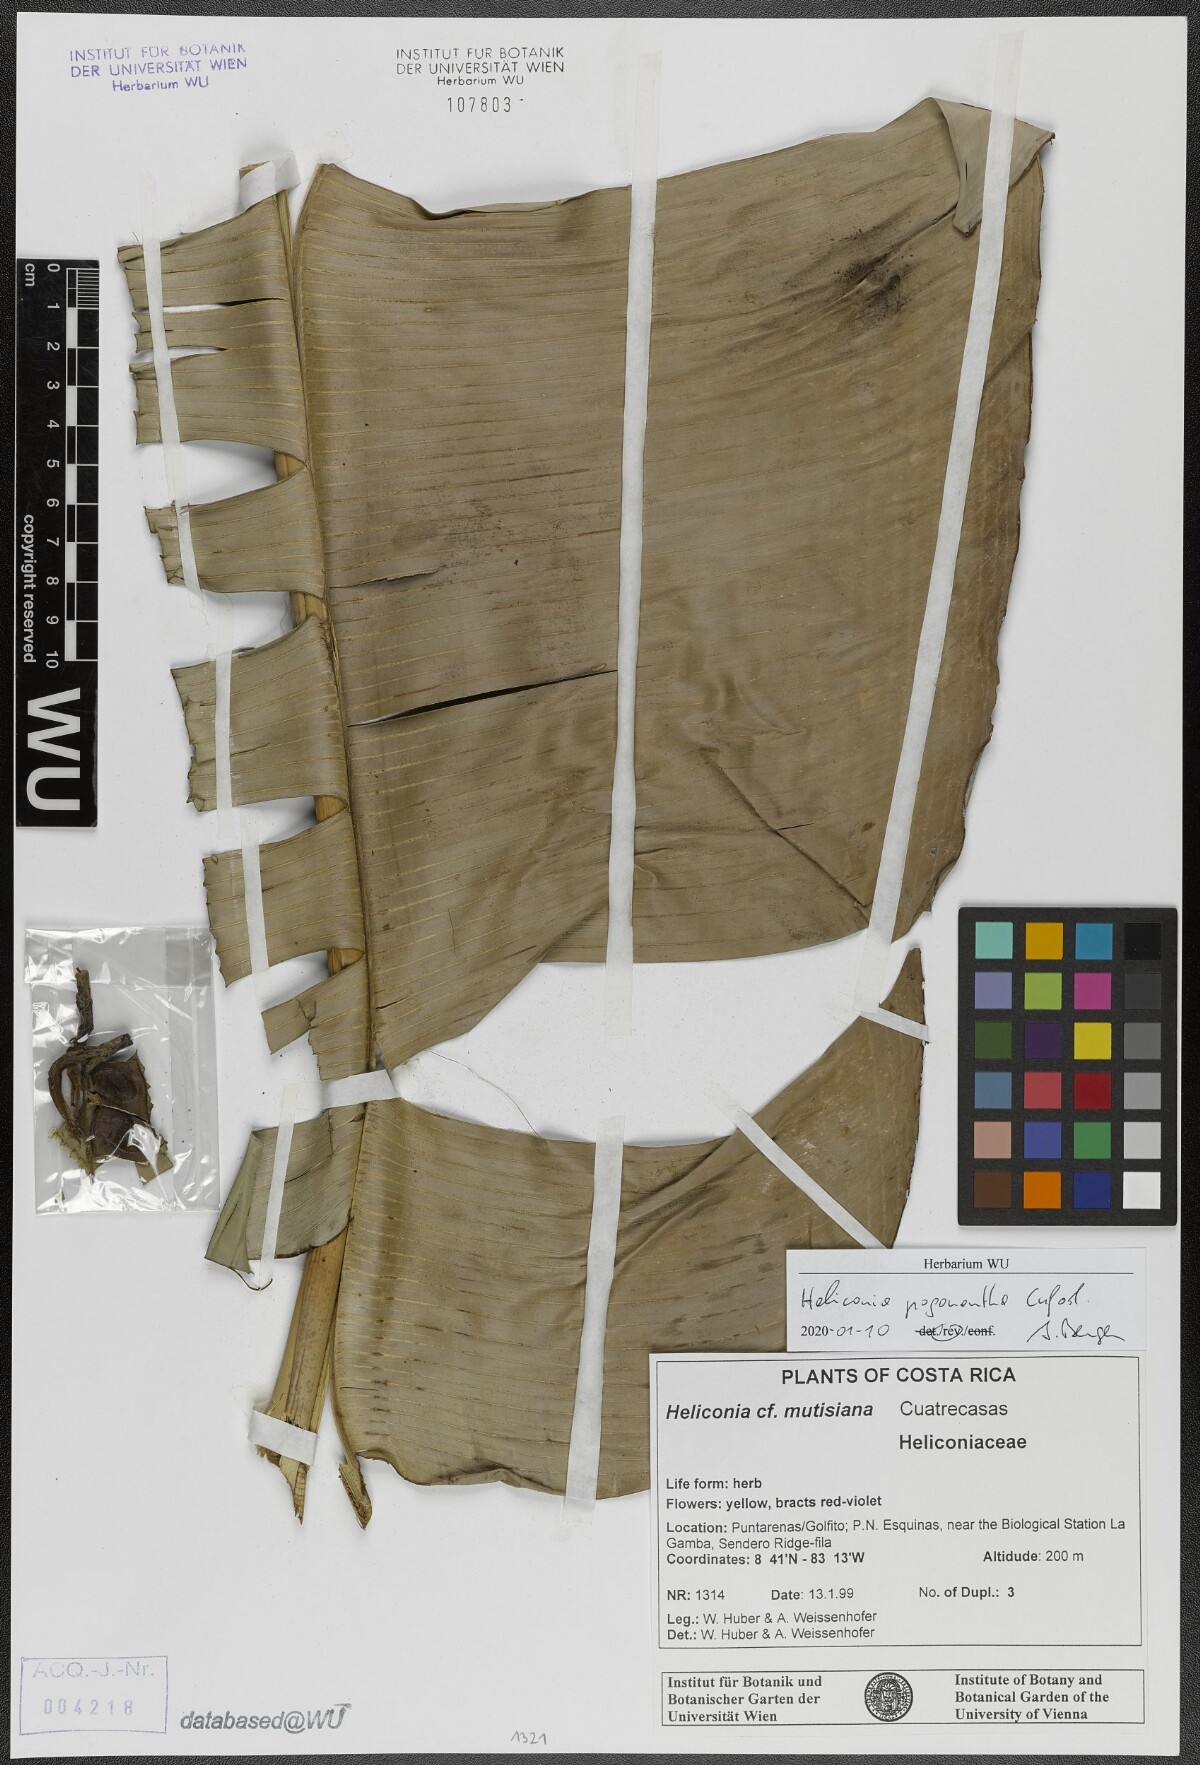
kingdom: Plantae
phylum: Tracheophyta
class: Liliopsida
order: Zingiberales
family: Heliconiaceae
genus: Heliconia
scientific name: Heliconia pogonantha
